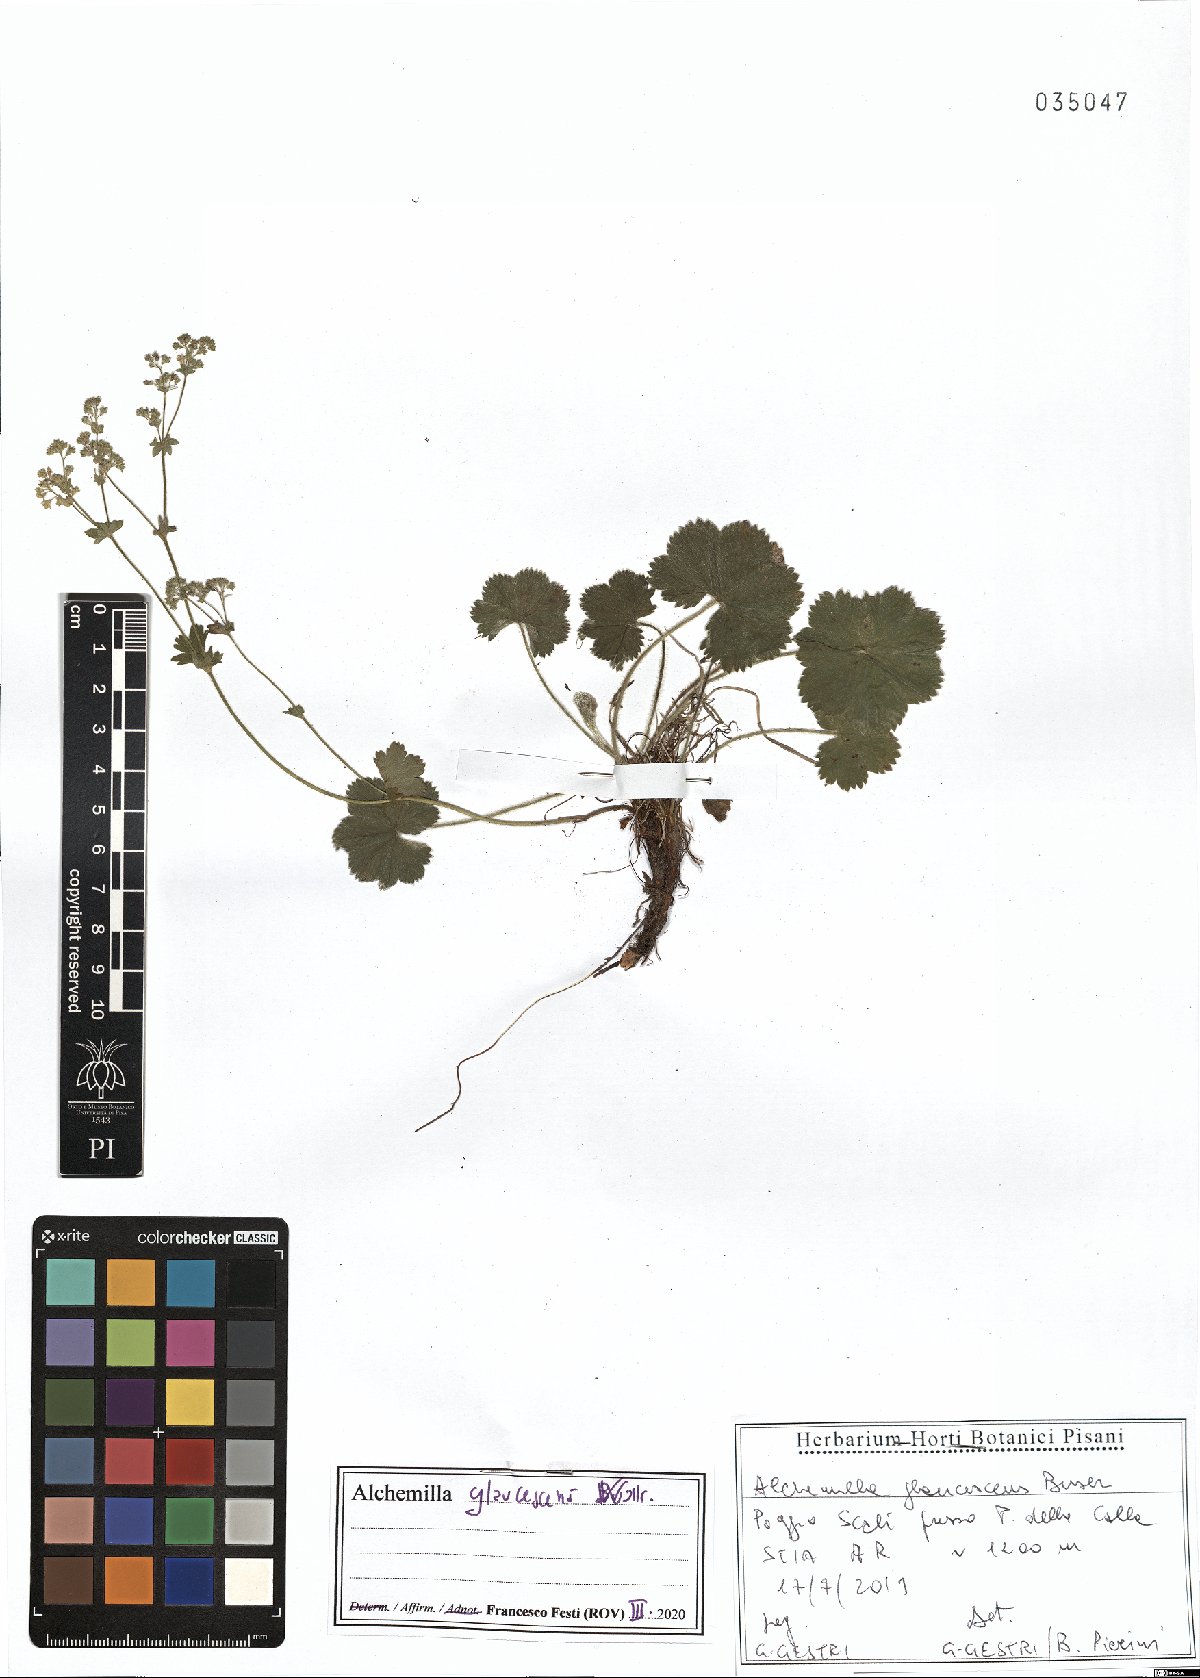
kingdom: Plantae
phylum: Tracheophyta
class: Magnoliopsida
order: Rosales
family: Rosaceae
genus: Alchemilla
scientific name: Alchemilla glaucescens
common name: Silky lady's mantle
